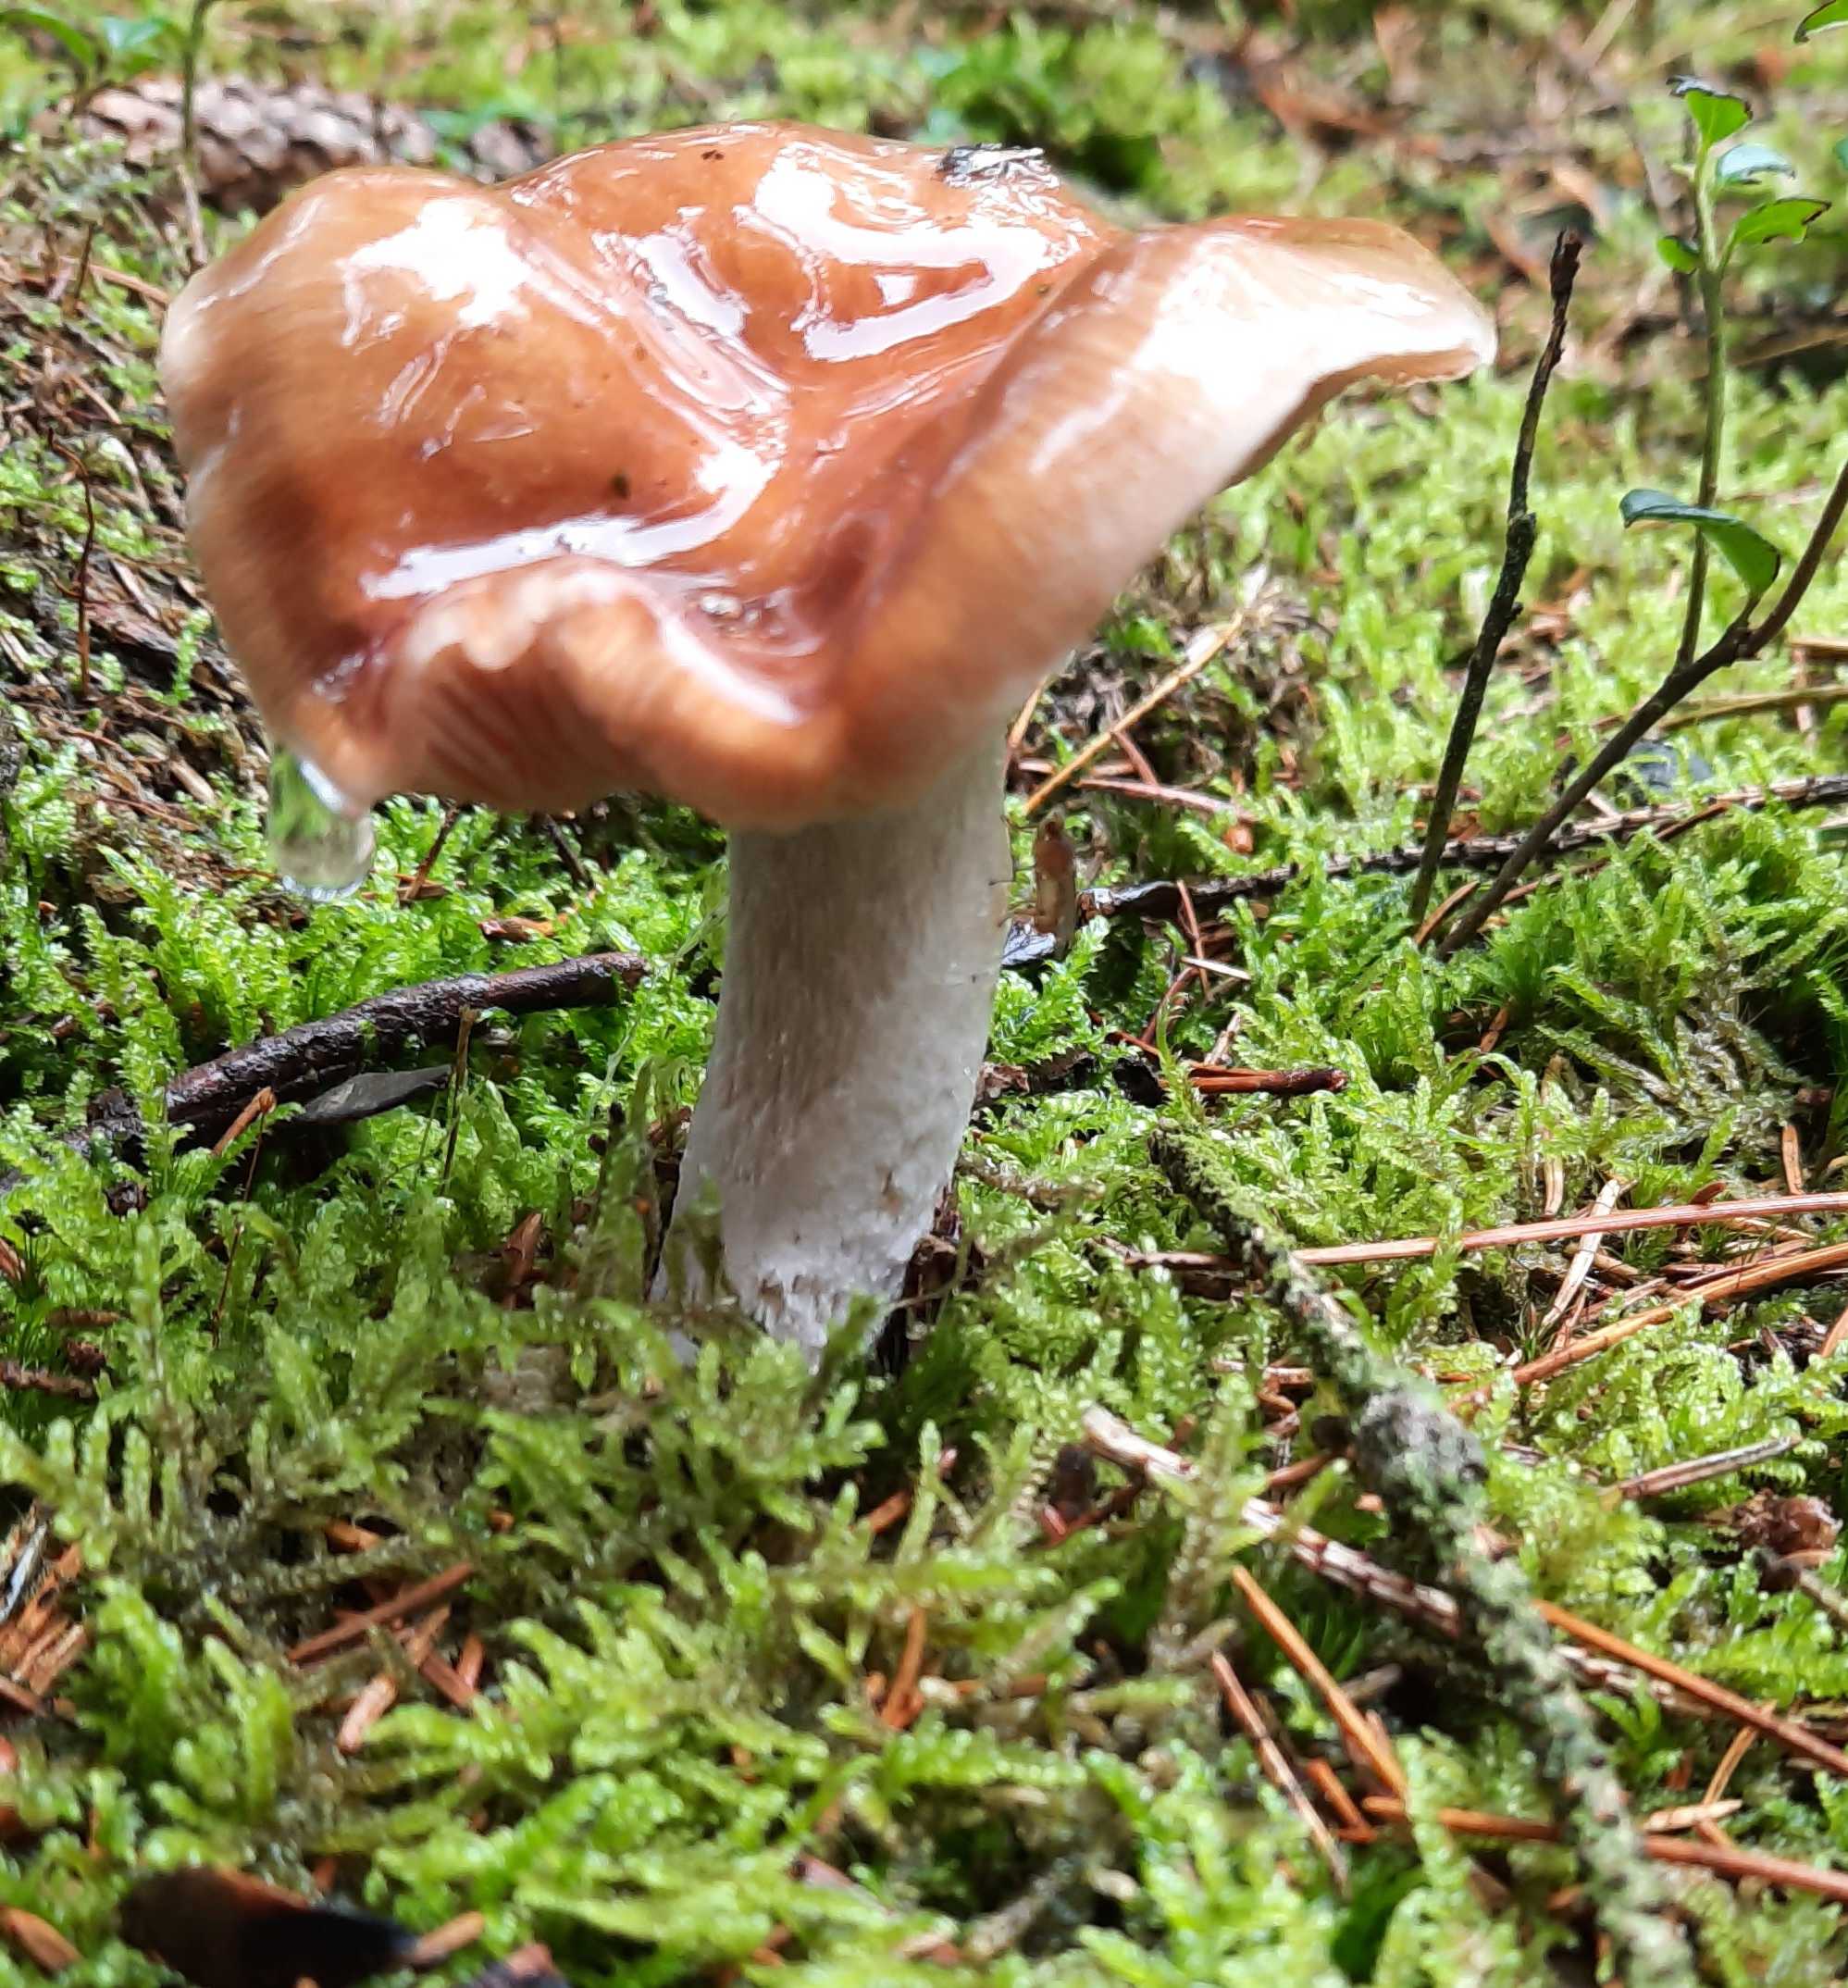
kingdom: Fungi
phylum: Basidiomycota
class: Agaricomycetes
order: Agaricales
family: Cortinariaceae
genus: Cortinarius
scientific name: Cortinarius
